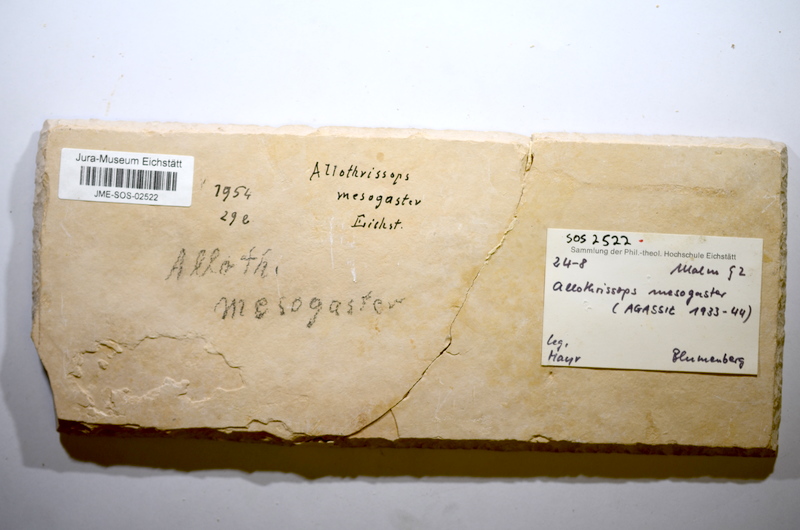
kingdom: Animalia
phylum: Chordata
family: Allothrissopidae
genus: Allothrissops
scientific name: Allothrissops mesogaster
